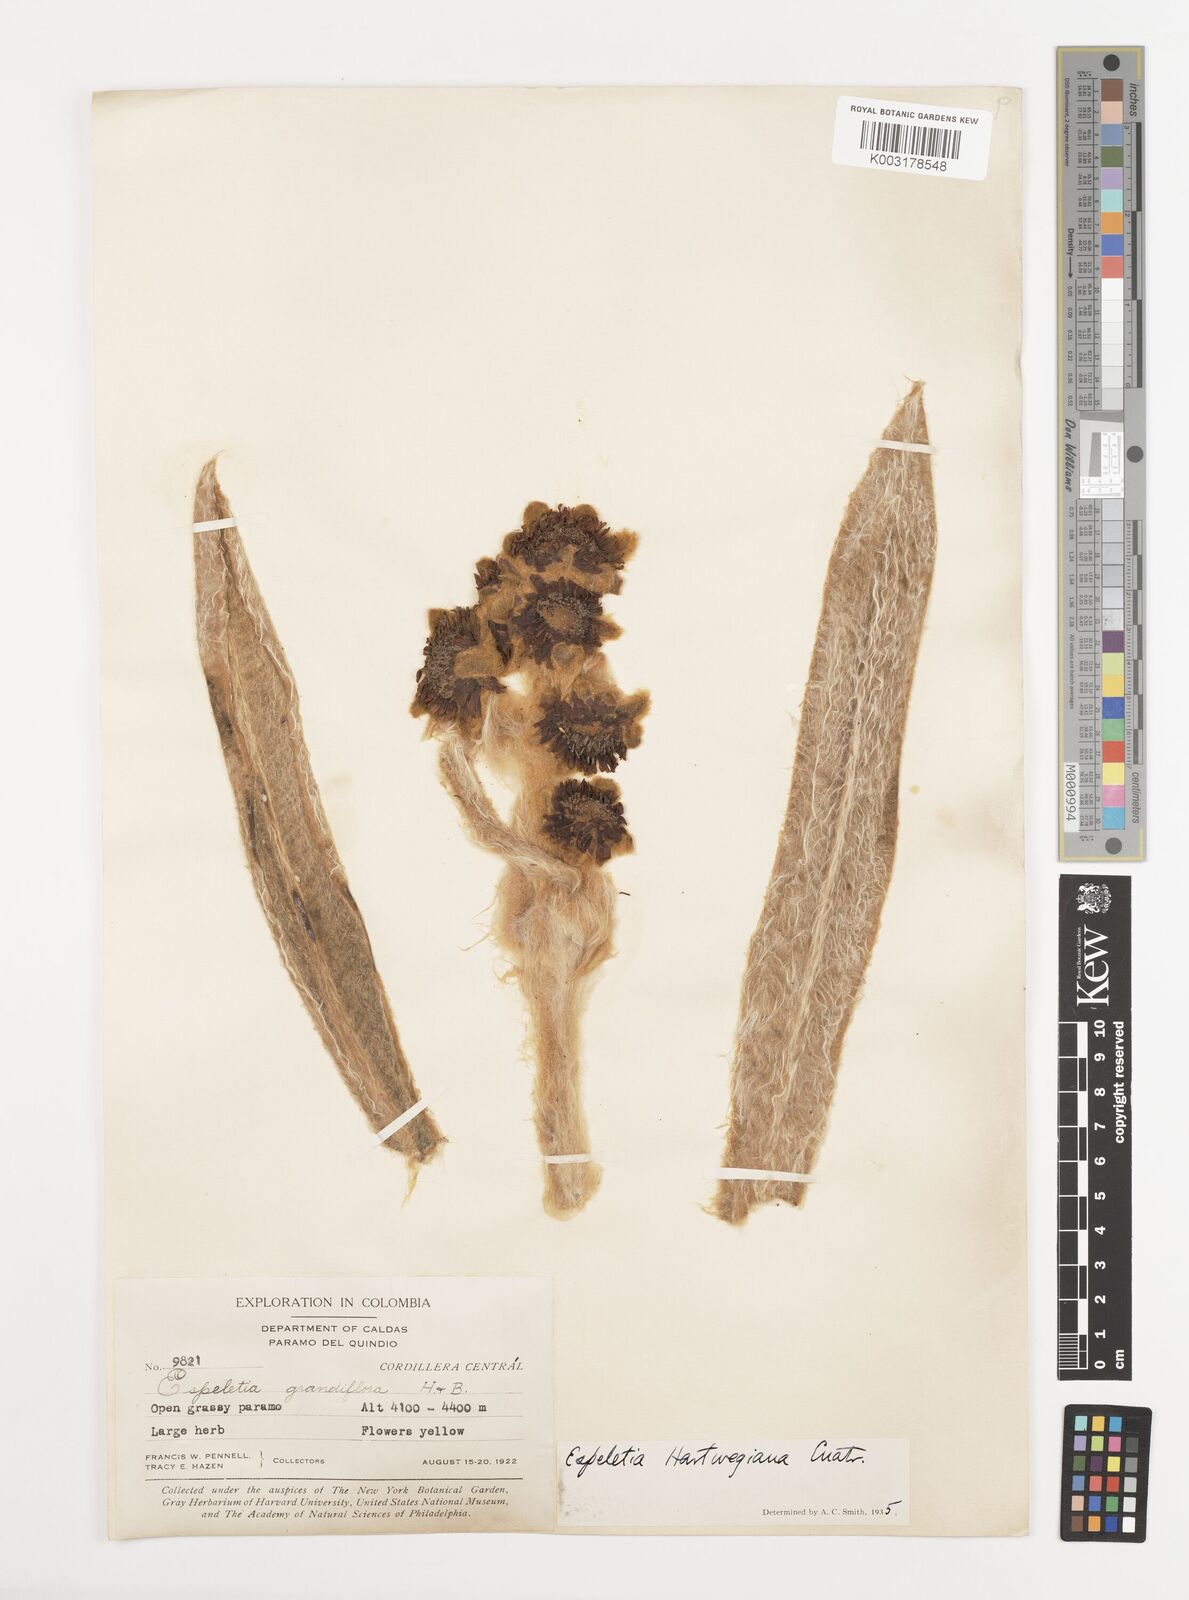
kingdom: Plantae
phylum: Tracheophyta
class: Magnoliopsida
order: Asterales
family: Asteraceae
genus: Espeletia
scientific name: Espeletia hartwegiana
